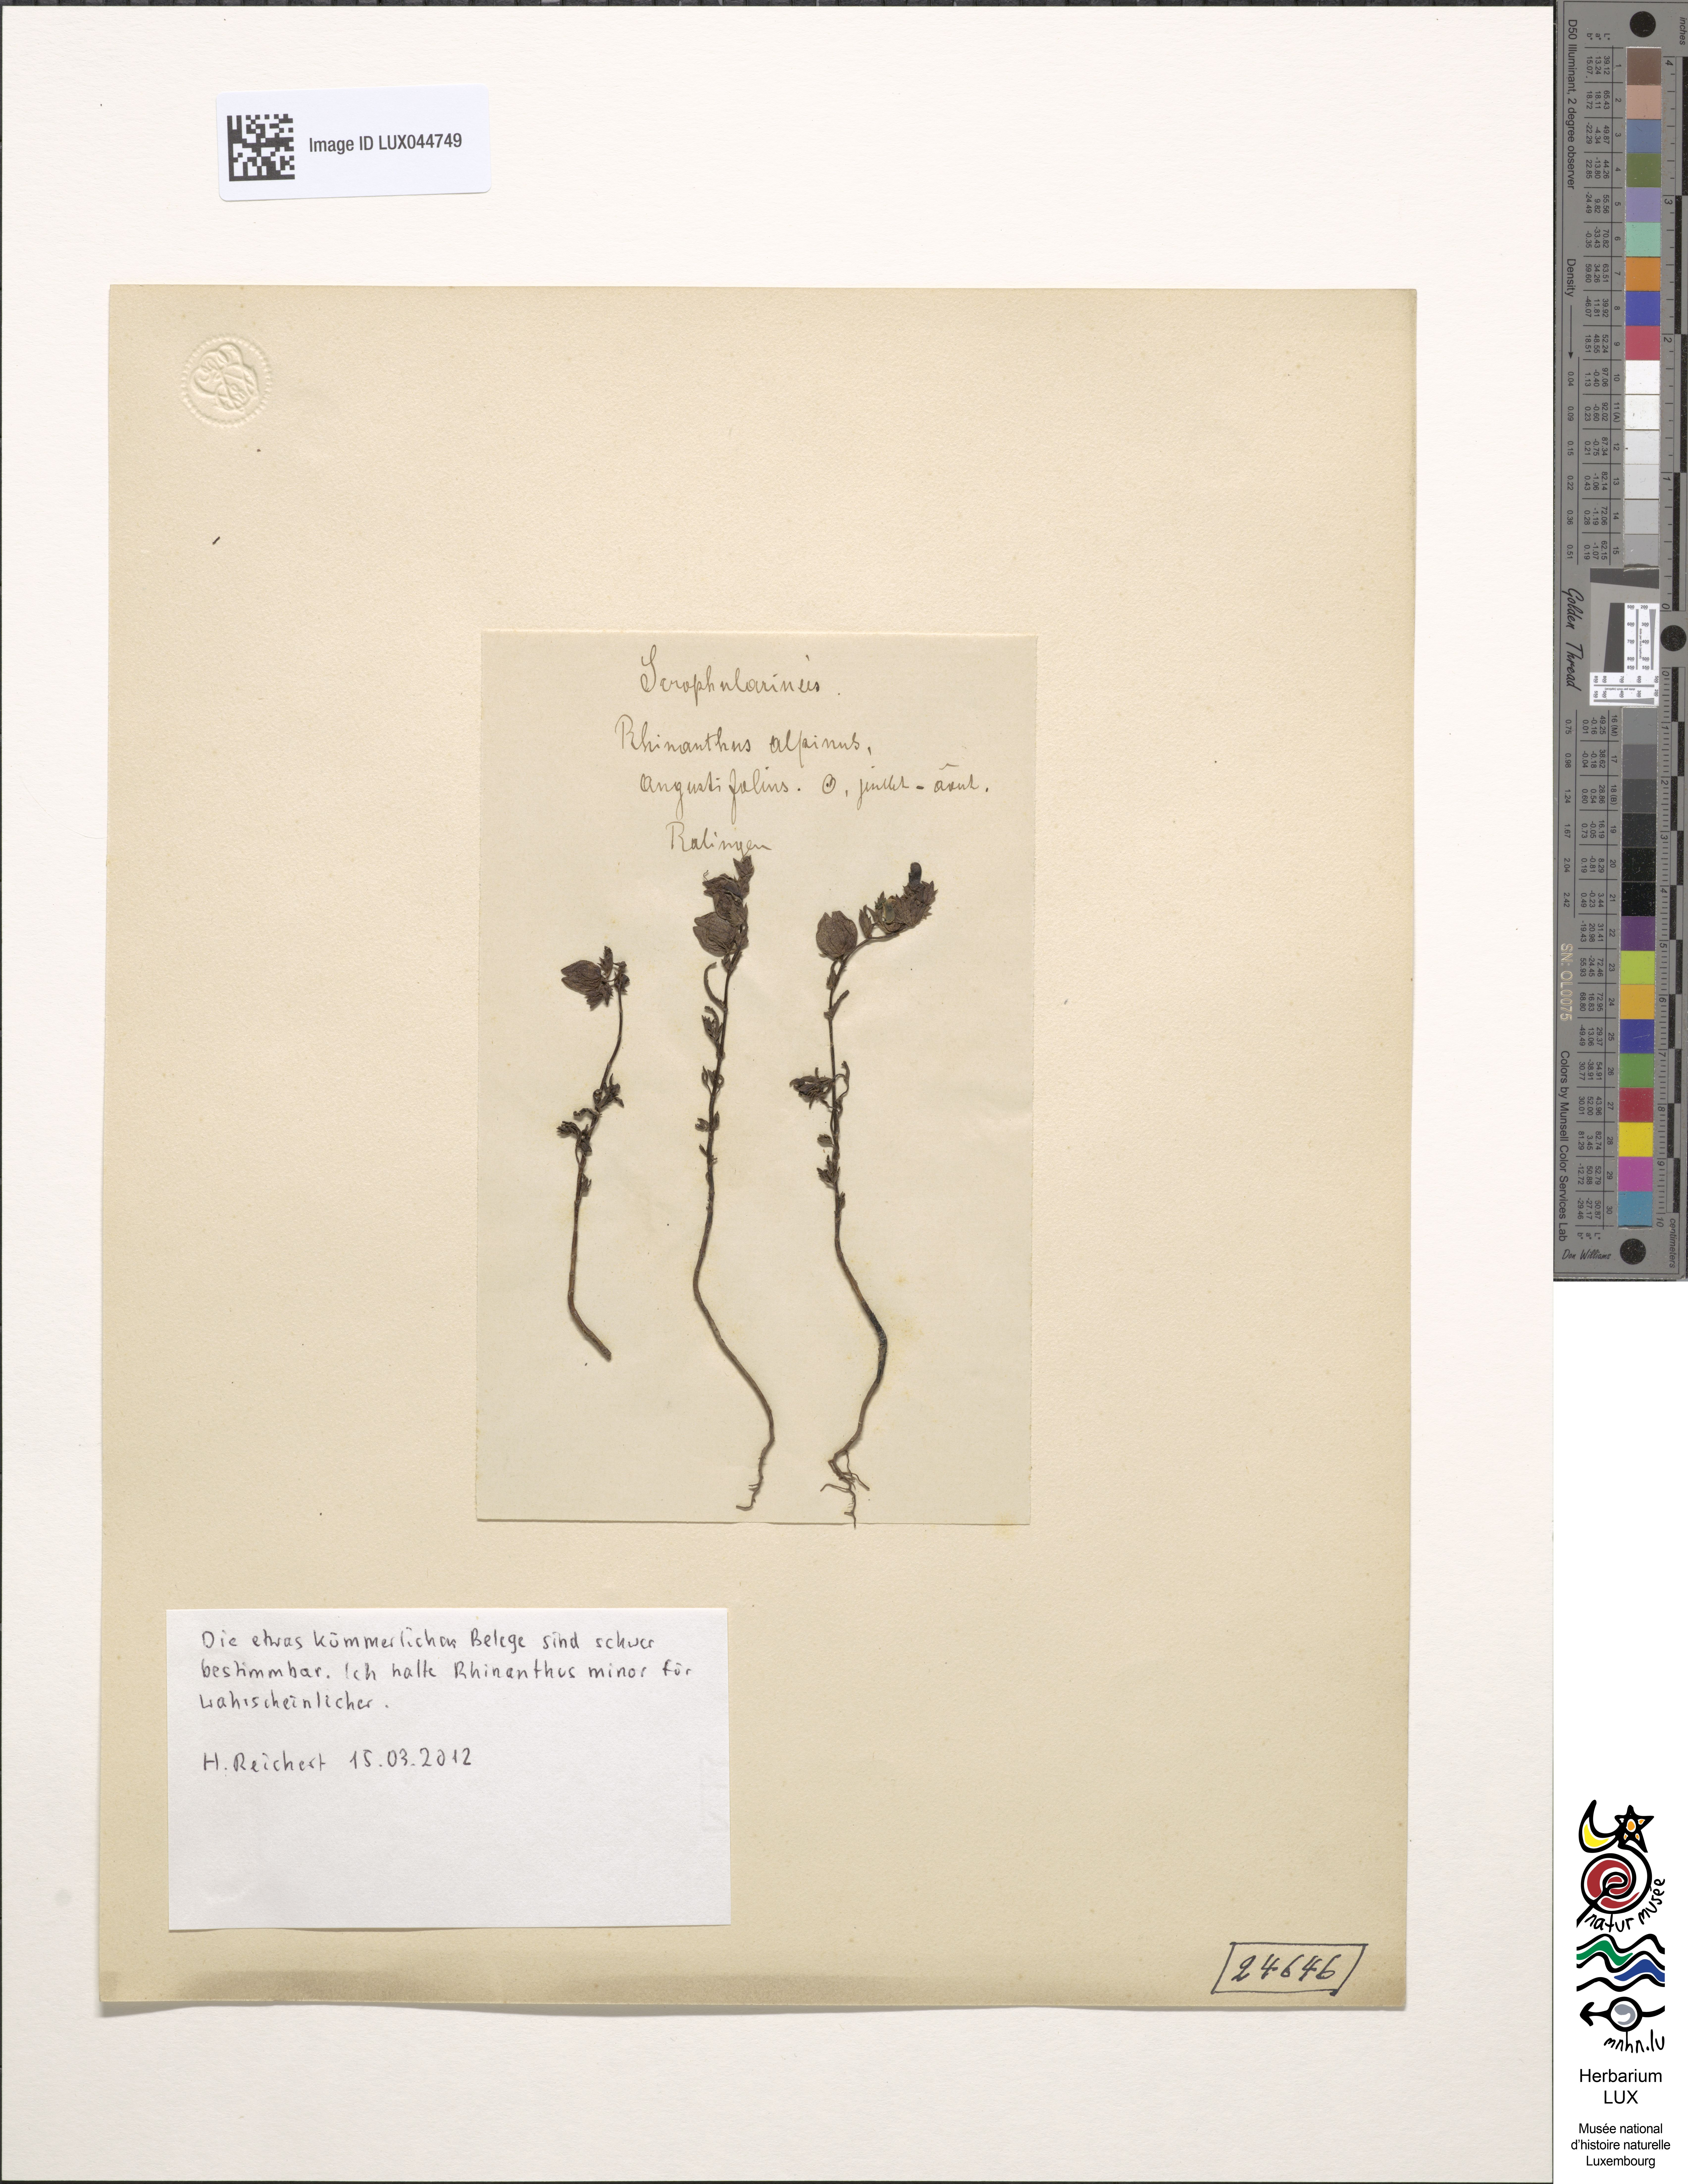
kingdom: Plantae
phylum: Tracheophyta
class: Magnoliopsida
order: Lamiales
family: Orobanchaceae
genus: Rhinanthus
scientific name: Rhinanthus minor
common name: Yellow-rattle
